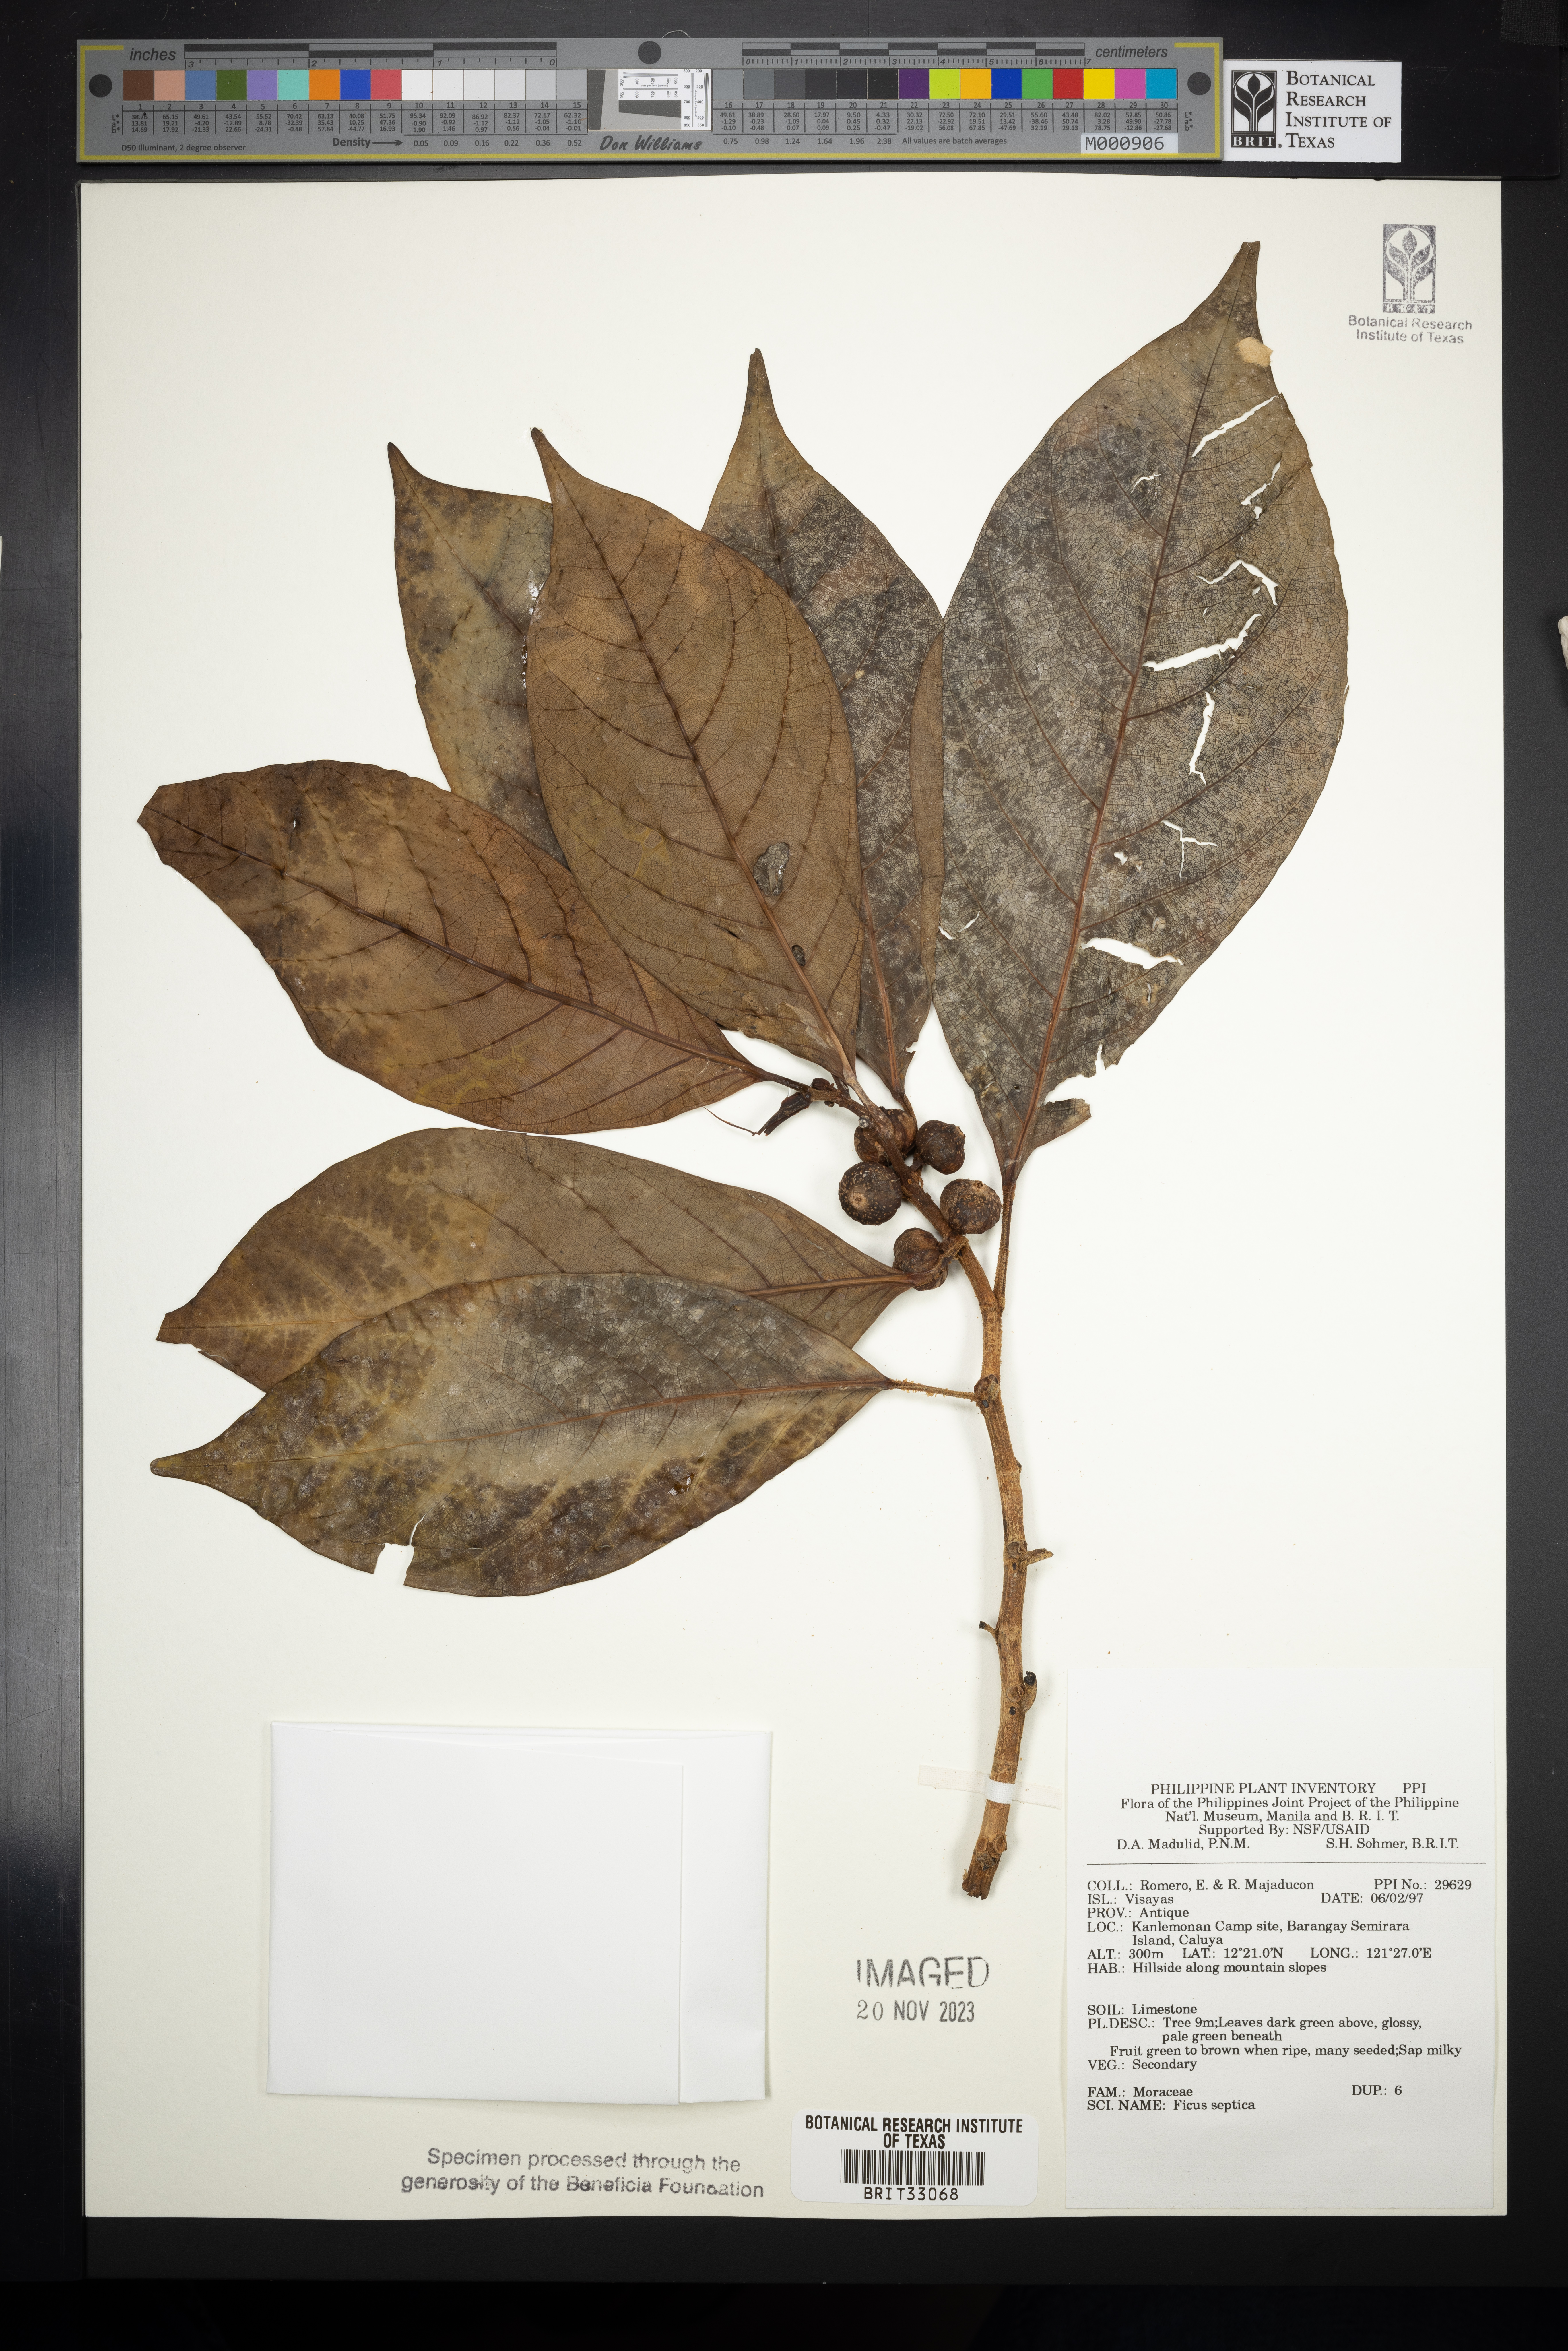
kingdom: Plantae
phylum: Tracheophyta
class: Magnoliopsida
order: Rosales
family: Moraceae
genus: Ficus
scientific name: Ficus septica
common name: Septic fig
